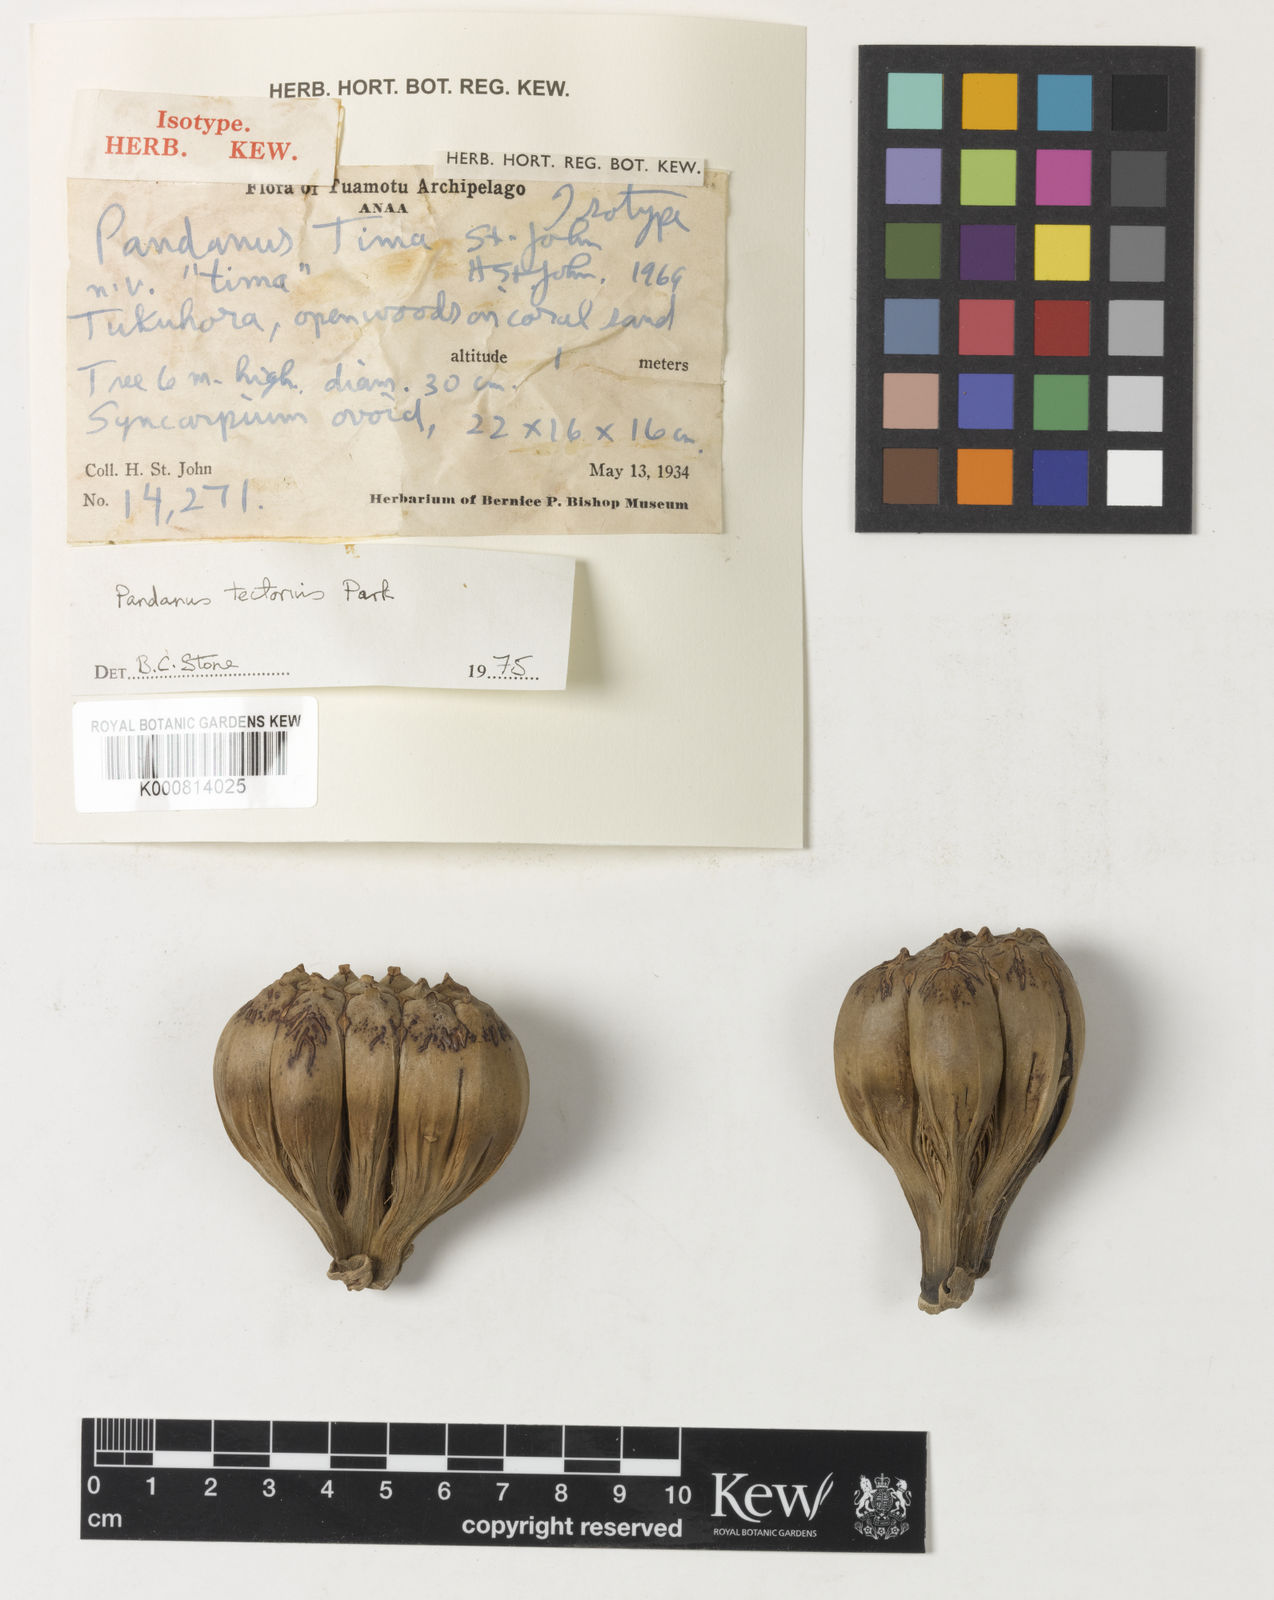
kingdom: Plantae
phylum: Tracheophyta
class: Liliopsida
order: Pandanales
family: Pandanaceae
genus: Pandanus
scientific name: Pandanus tectorius
